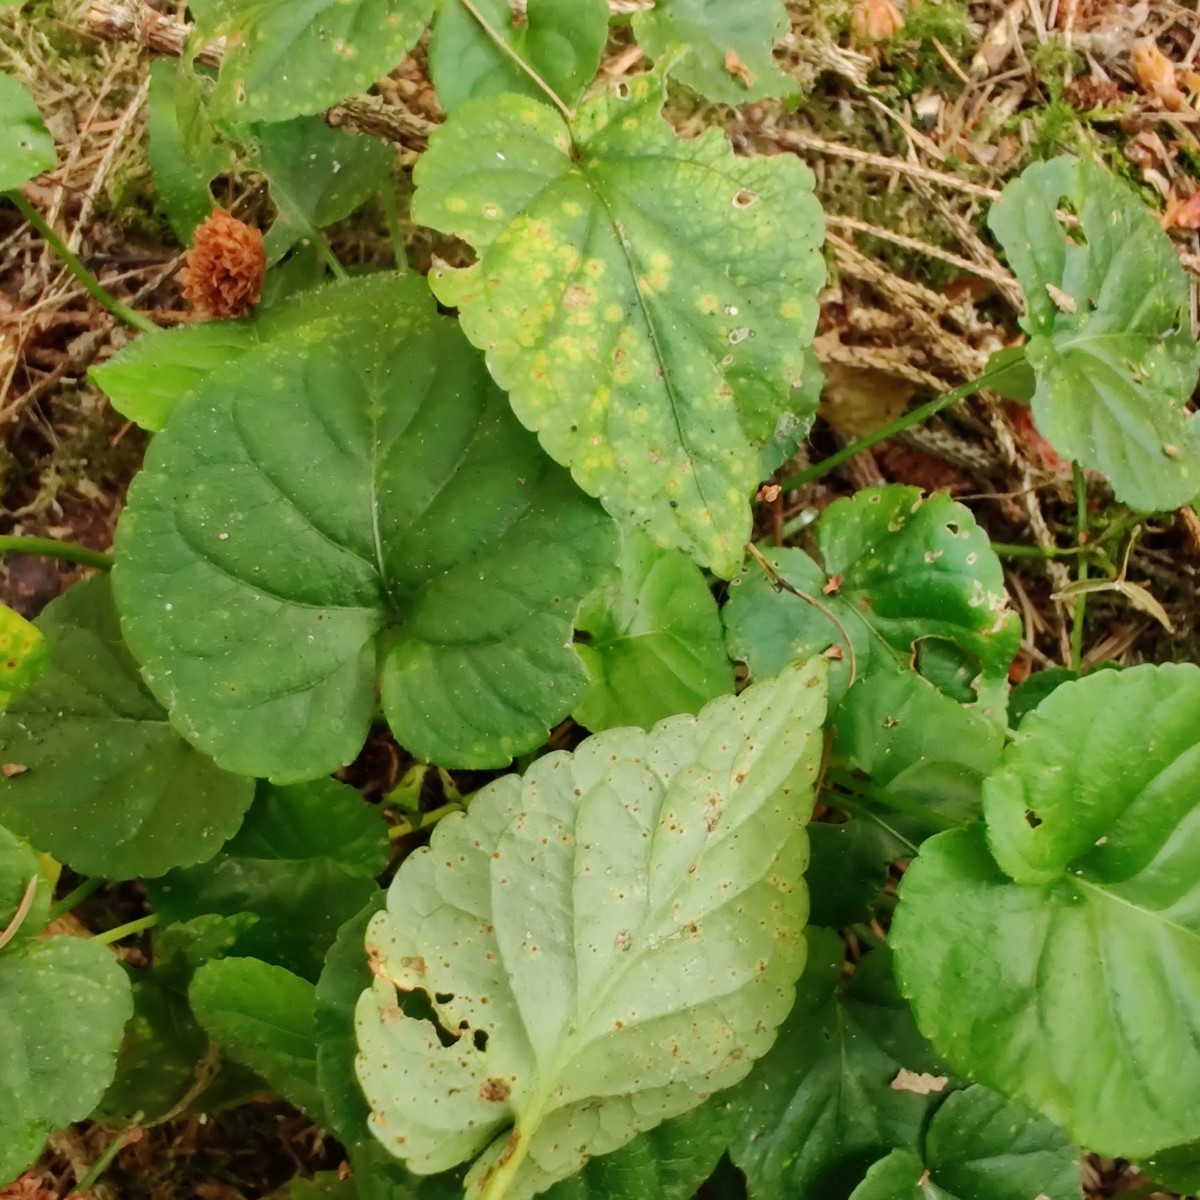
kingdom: Fungi
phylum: Basidiomycota
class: Pucciniomycetes
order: Pucciniales
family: Pucciniaceae
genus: Puccinia
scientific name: Puccinia violae
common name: viol-tvecellerust
